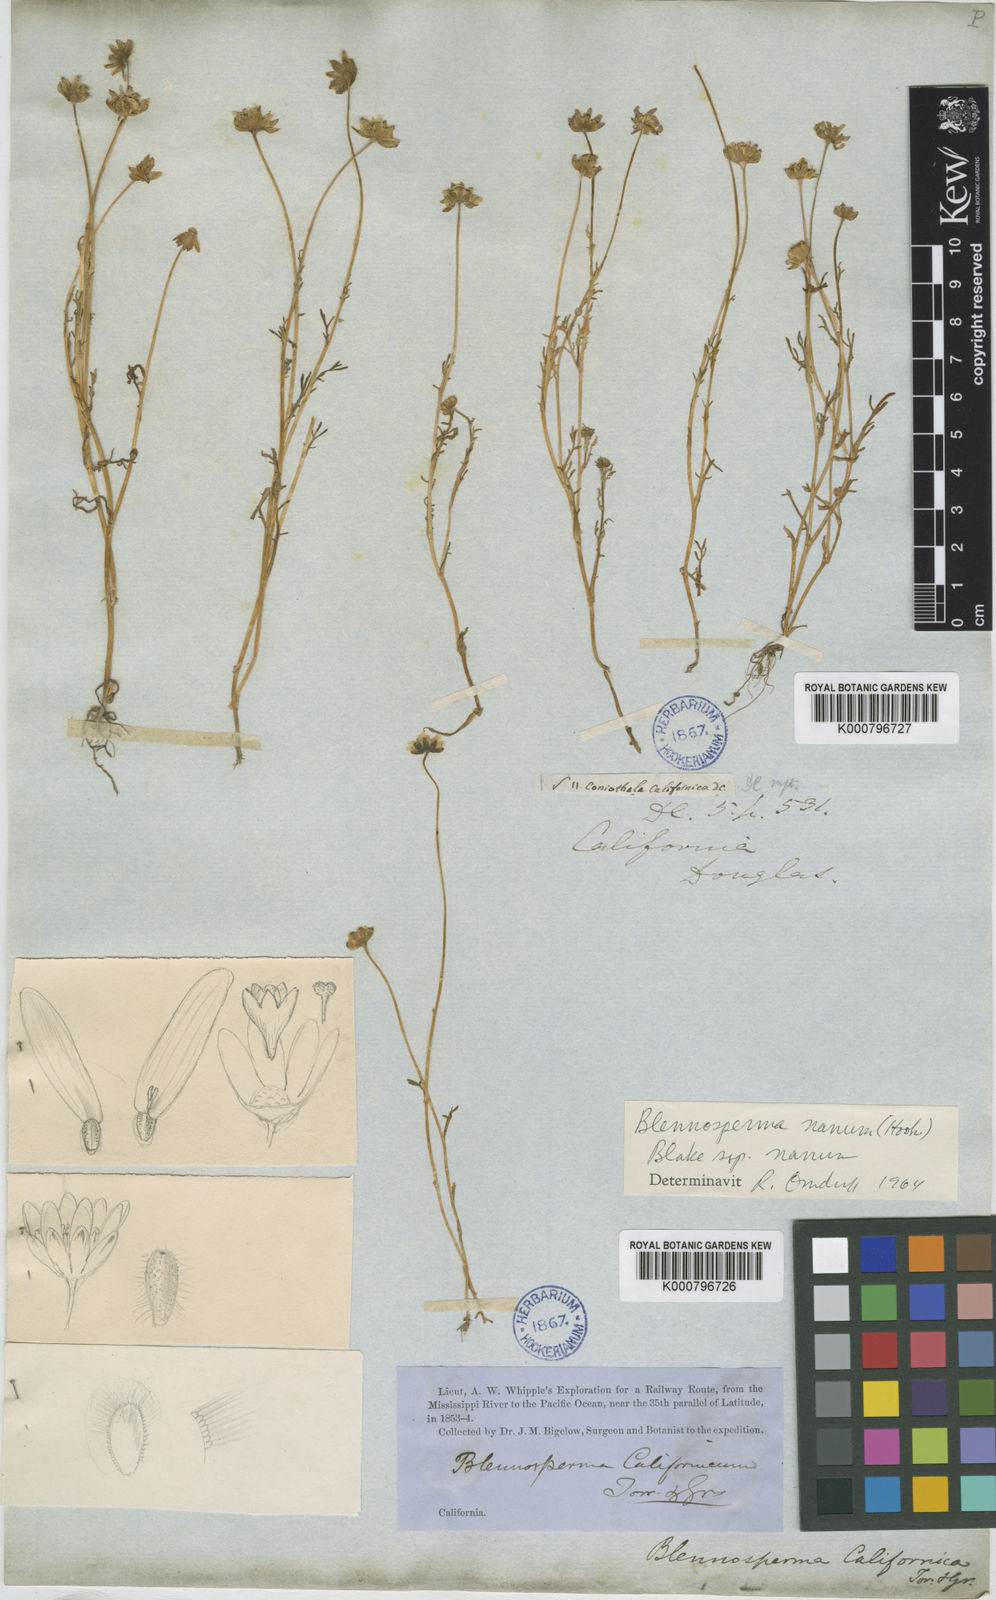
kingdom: Plantae
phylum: Tracheophyta
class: Magnoliopsida
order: Asterales
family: Asteraceae
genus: Blennosperma
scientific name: Blennosperma nanum
